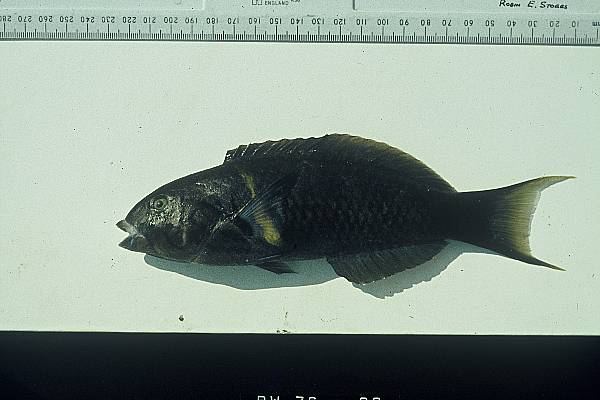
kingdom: Animalia
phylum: Chordata
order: Perciformes
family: Labridae
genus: Thalassoma
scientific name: Thalassoma hebraicum
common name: Goldbar wrasse
